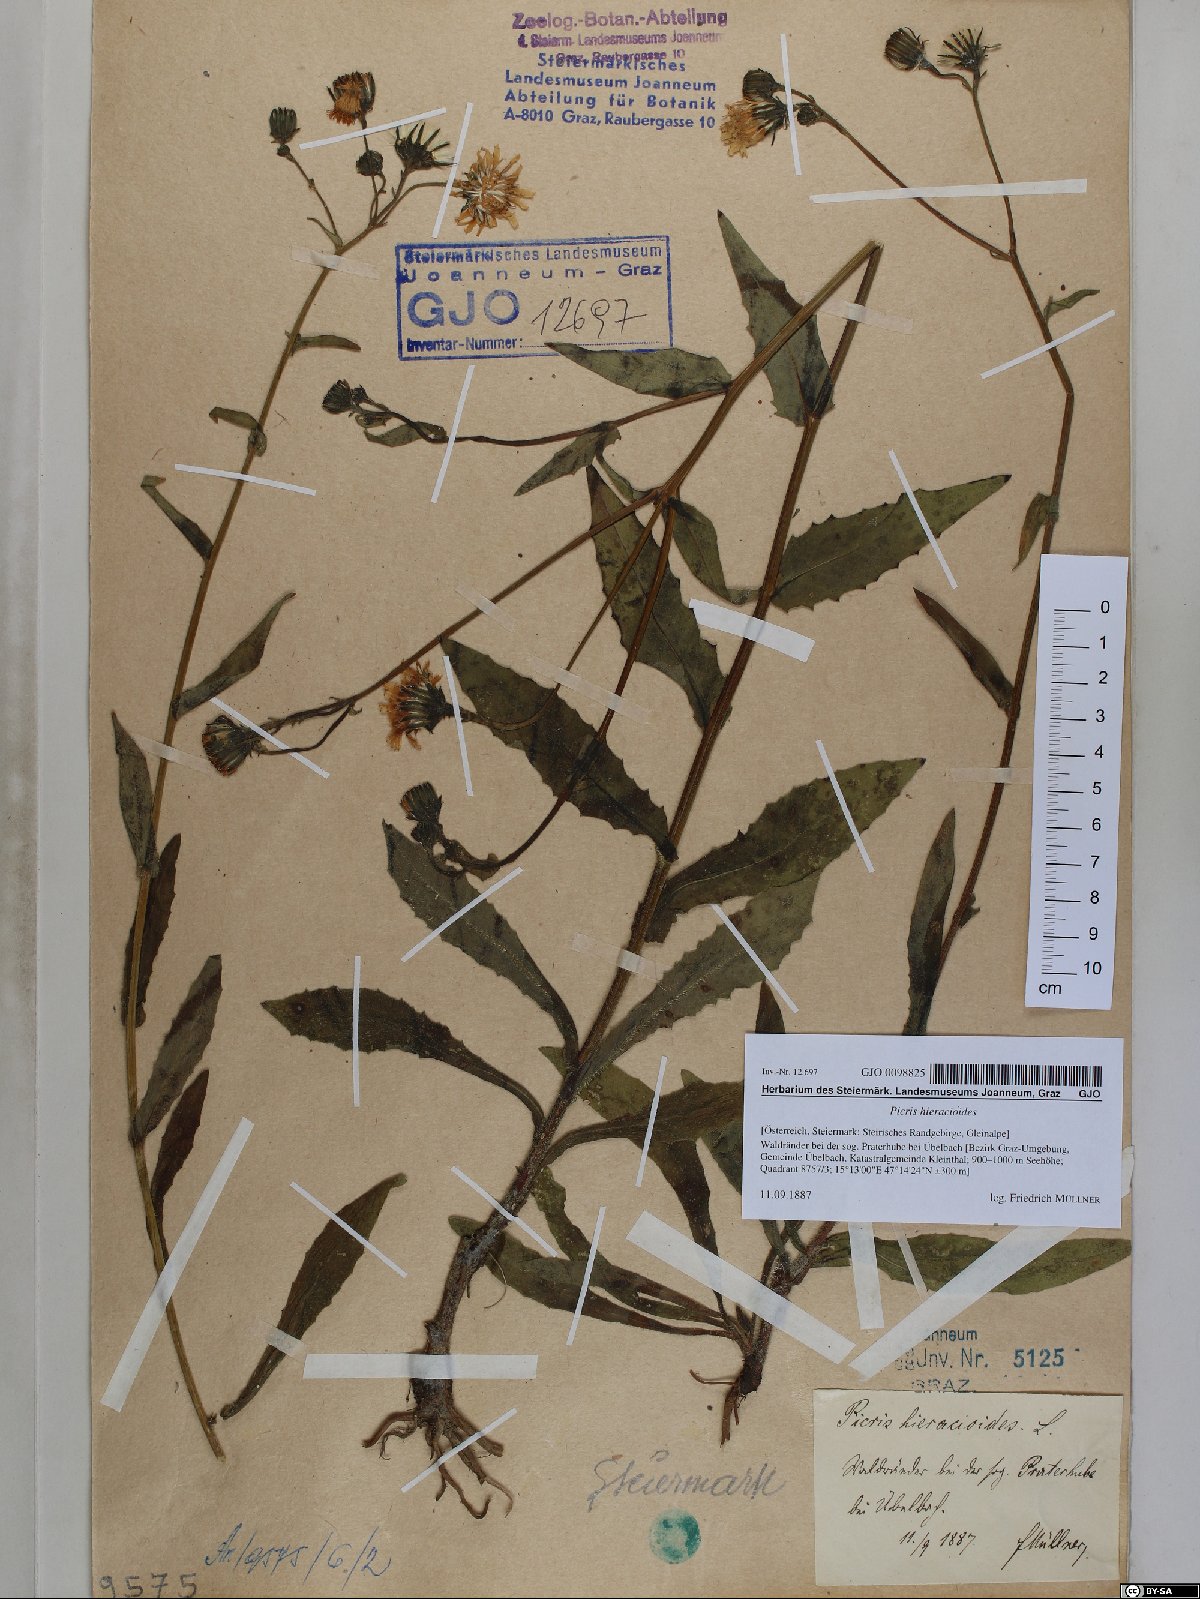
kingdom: Plantae
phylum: Tracheophyta
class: Magnoliopsida
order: Asterales
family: Asteraceae
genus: Picris
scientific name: Picris hieracioides
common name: Hawkweed oxtongue
